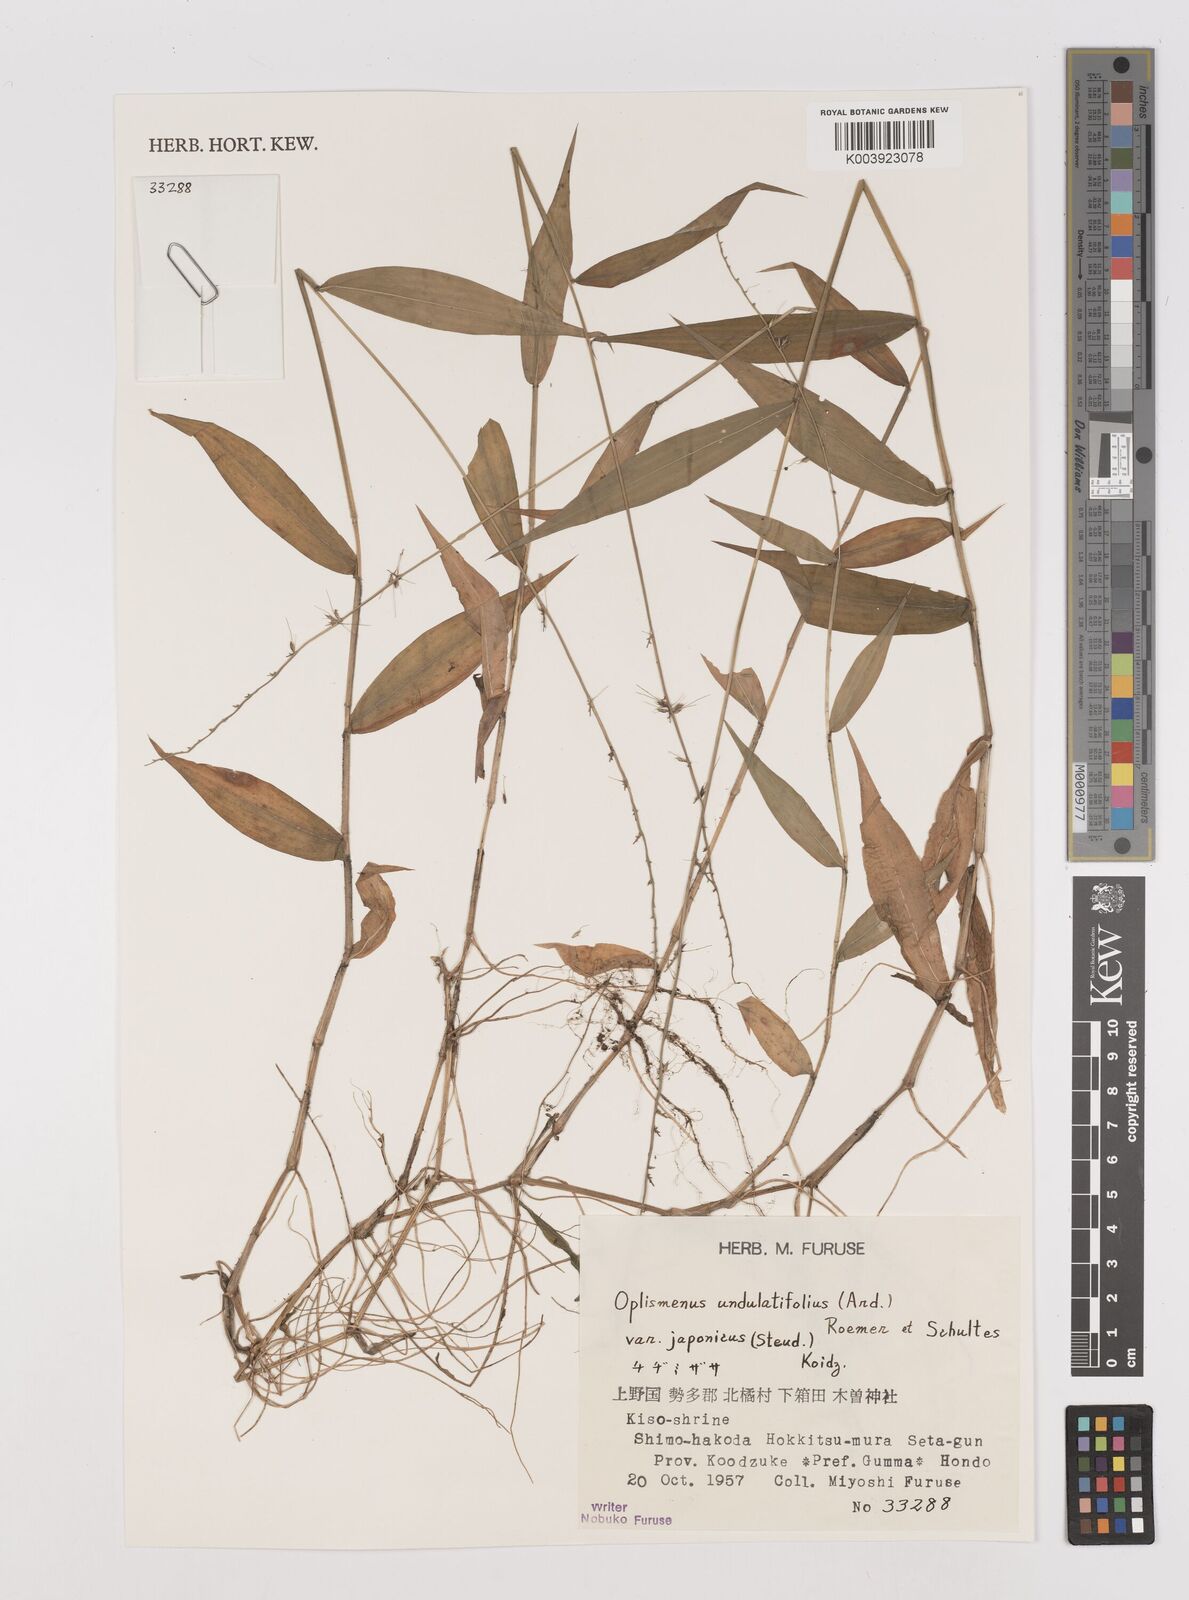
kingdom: Plantae
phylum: Tracheophyta
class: Liliopsida
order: Poales
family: Poaceae
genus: Oplismenus
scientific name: Oplismenus undulatifolius
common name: Wavyleaf basketgrass
